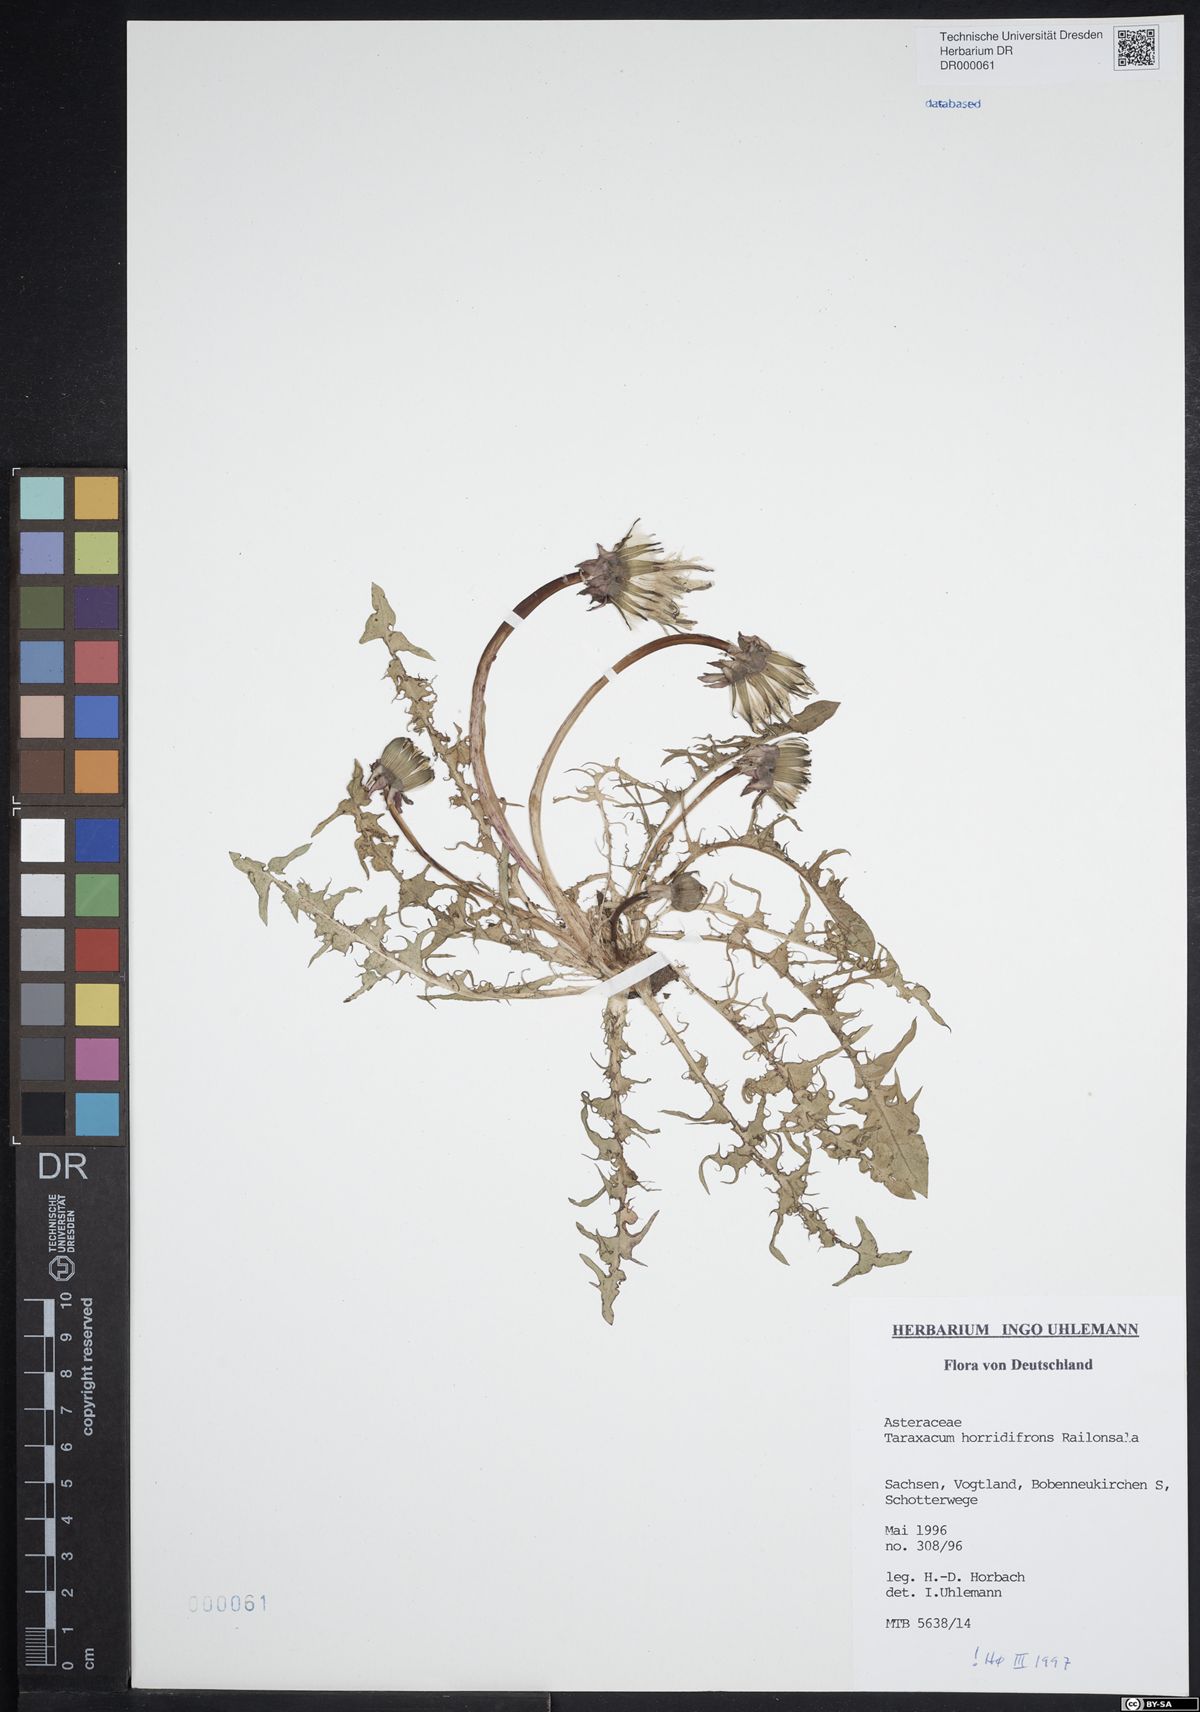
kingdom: Plantae
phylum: Tracheophyta
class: Magnoliopsida
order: Asterales
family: Asteraceae
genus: Taraxacum
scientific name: Taraxacum horridifrons
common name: Prickly-leaved dandelion
